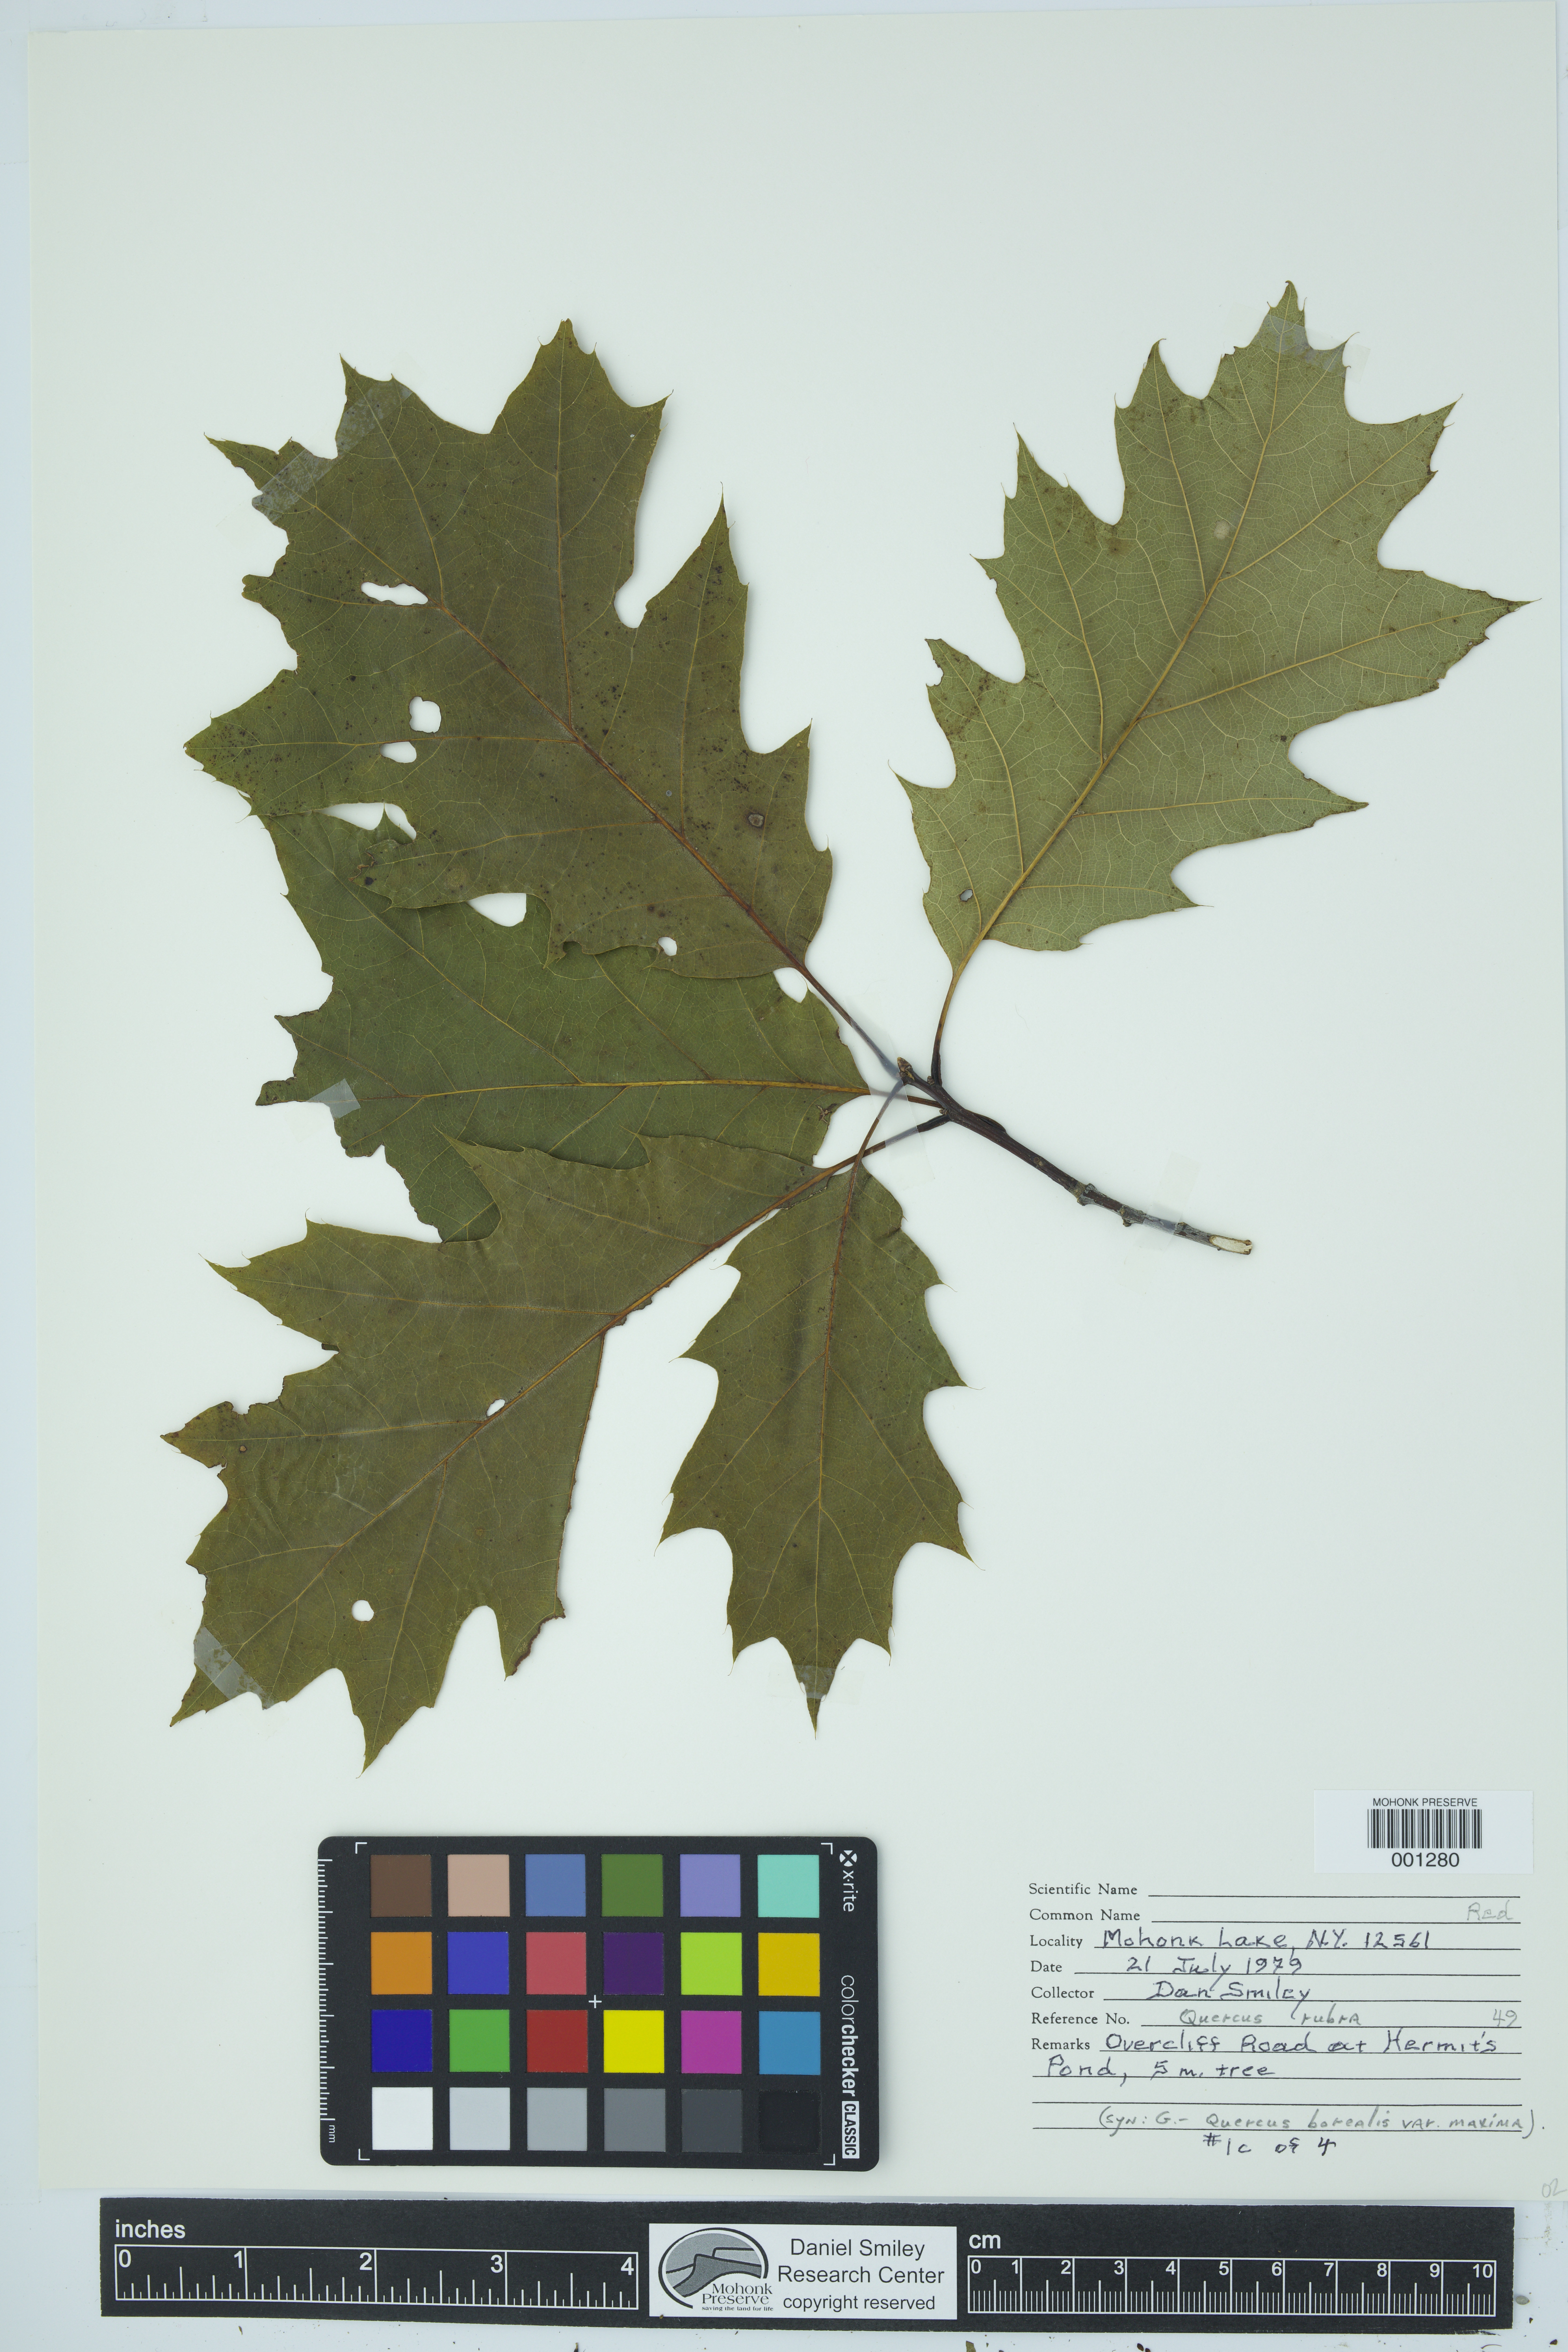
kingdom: Plantae
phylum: Tracheophyta
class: Magnoliopsida
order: Fagales
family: Fagaceae
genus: Quercus
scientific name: Quercus rubra
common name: Red oak
